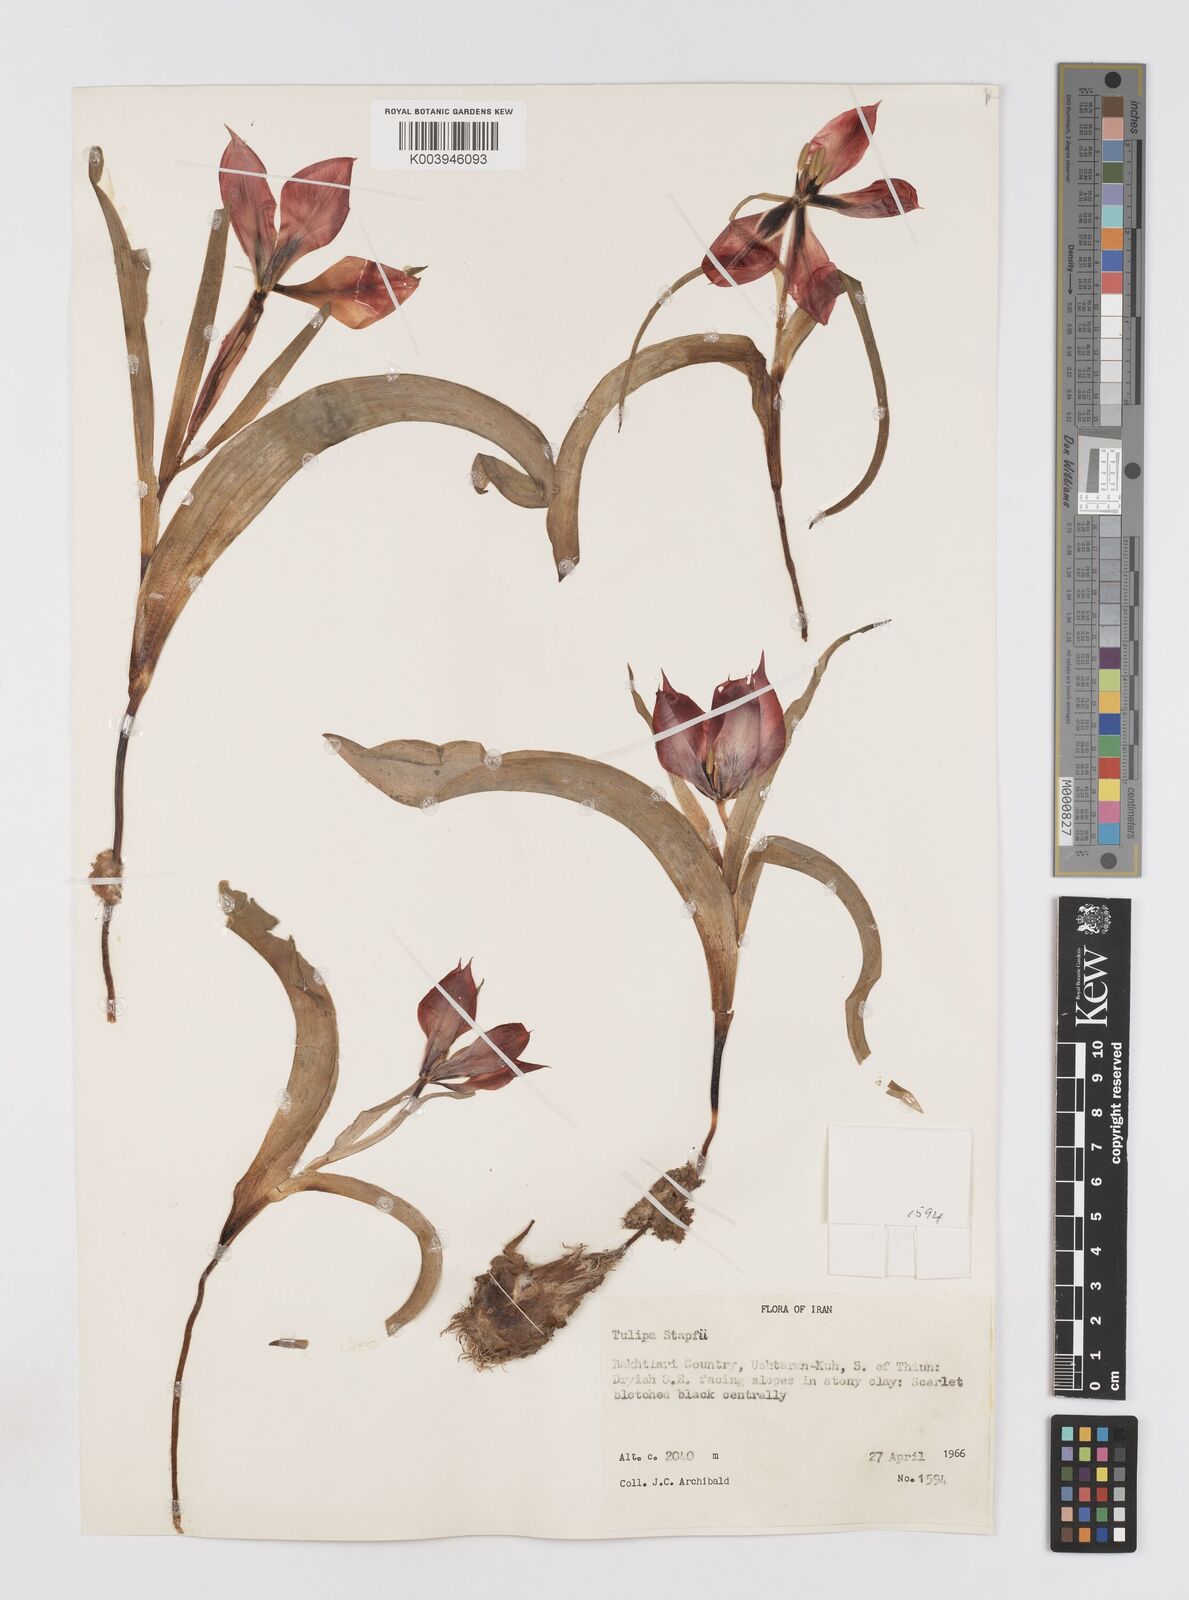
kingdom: Plantae
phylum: Tracheophyta
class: Liliopsida
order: Liliales
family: Liliaceae
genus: Tulipa
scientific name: Tulipa systola
